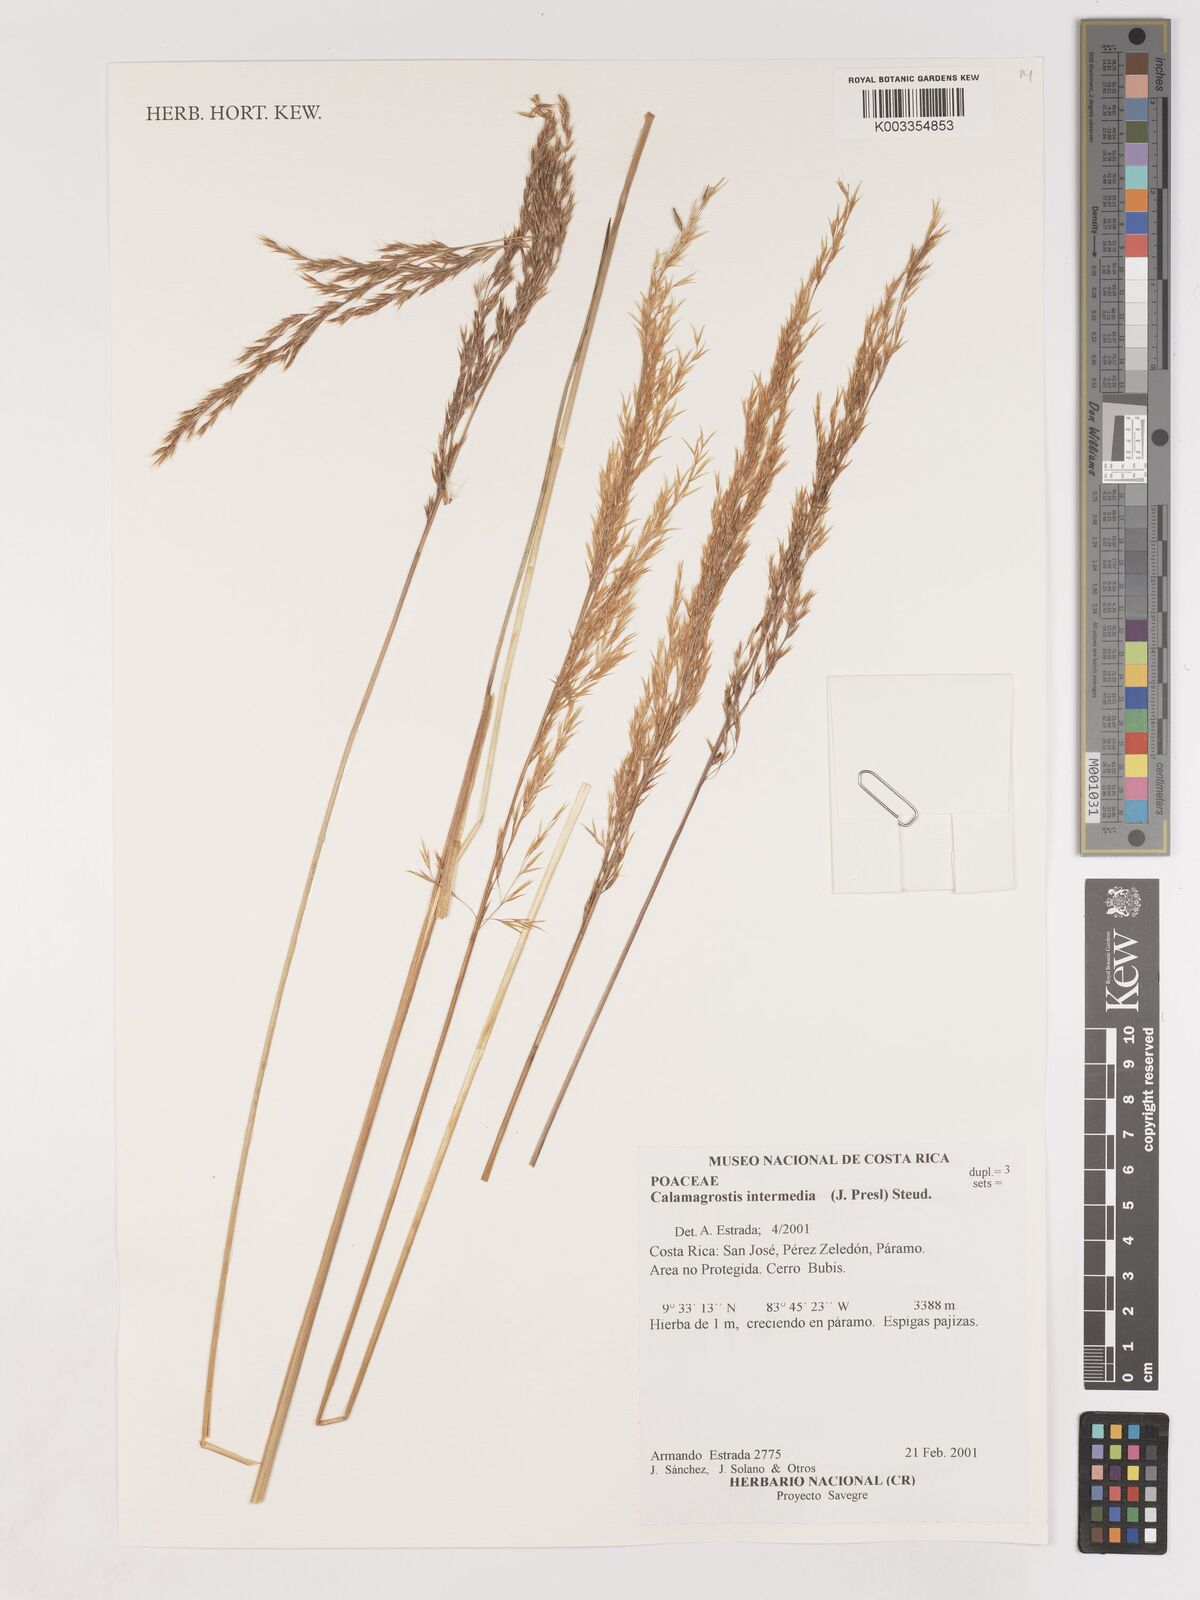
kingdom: Plantae
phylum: Tracheophyta
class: Liliopsida
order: Poales
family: Poaceae
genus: Cinnagrostis
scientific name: Cinnagrostis intermedia
